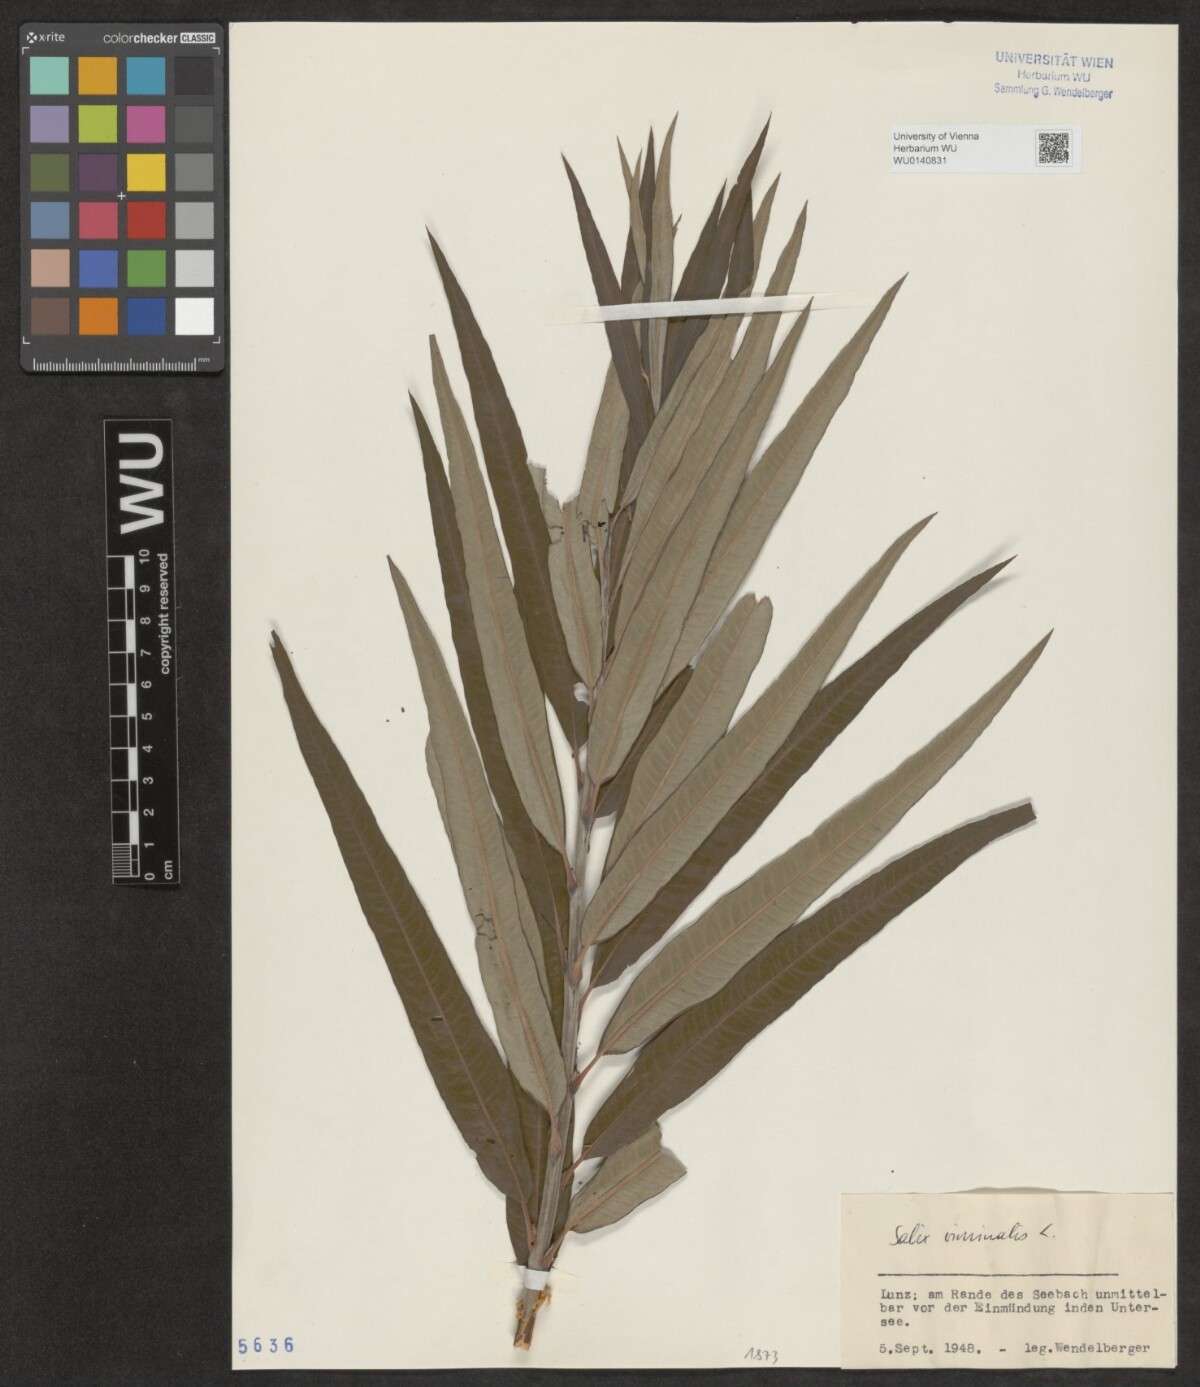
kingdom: Plantae
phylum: Tracheophyta
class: Magnoliopsida
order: Malpighiales
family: Salicaceae
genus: Salix
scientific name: Salix viminalis
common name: Osier
